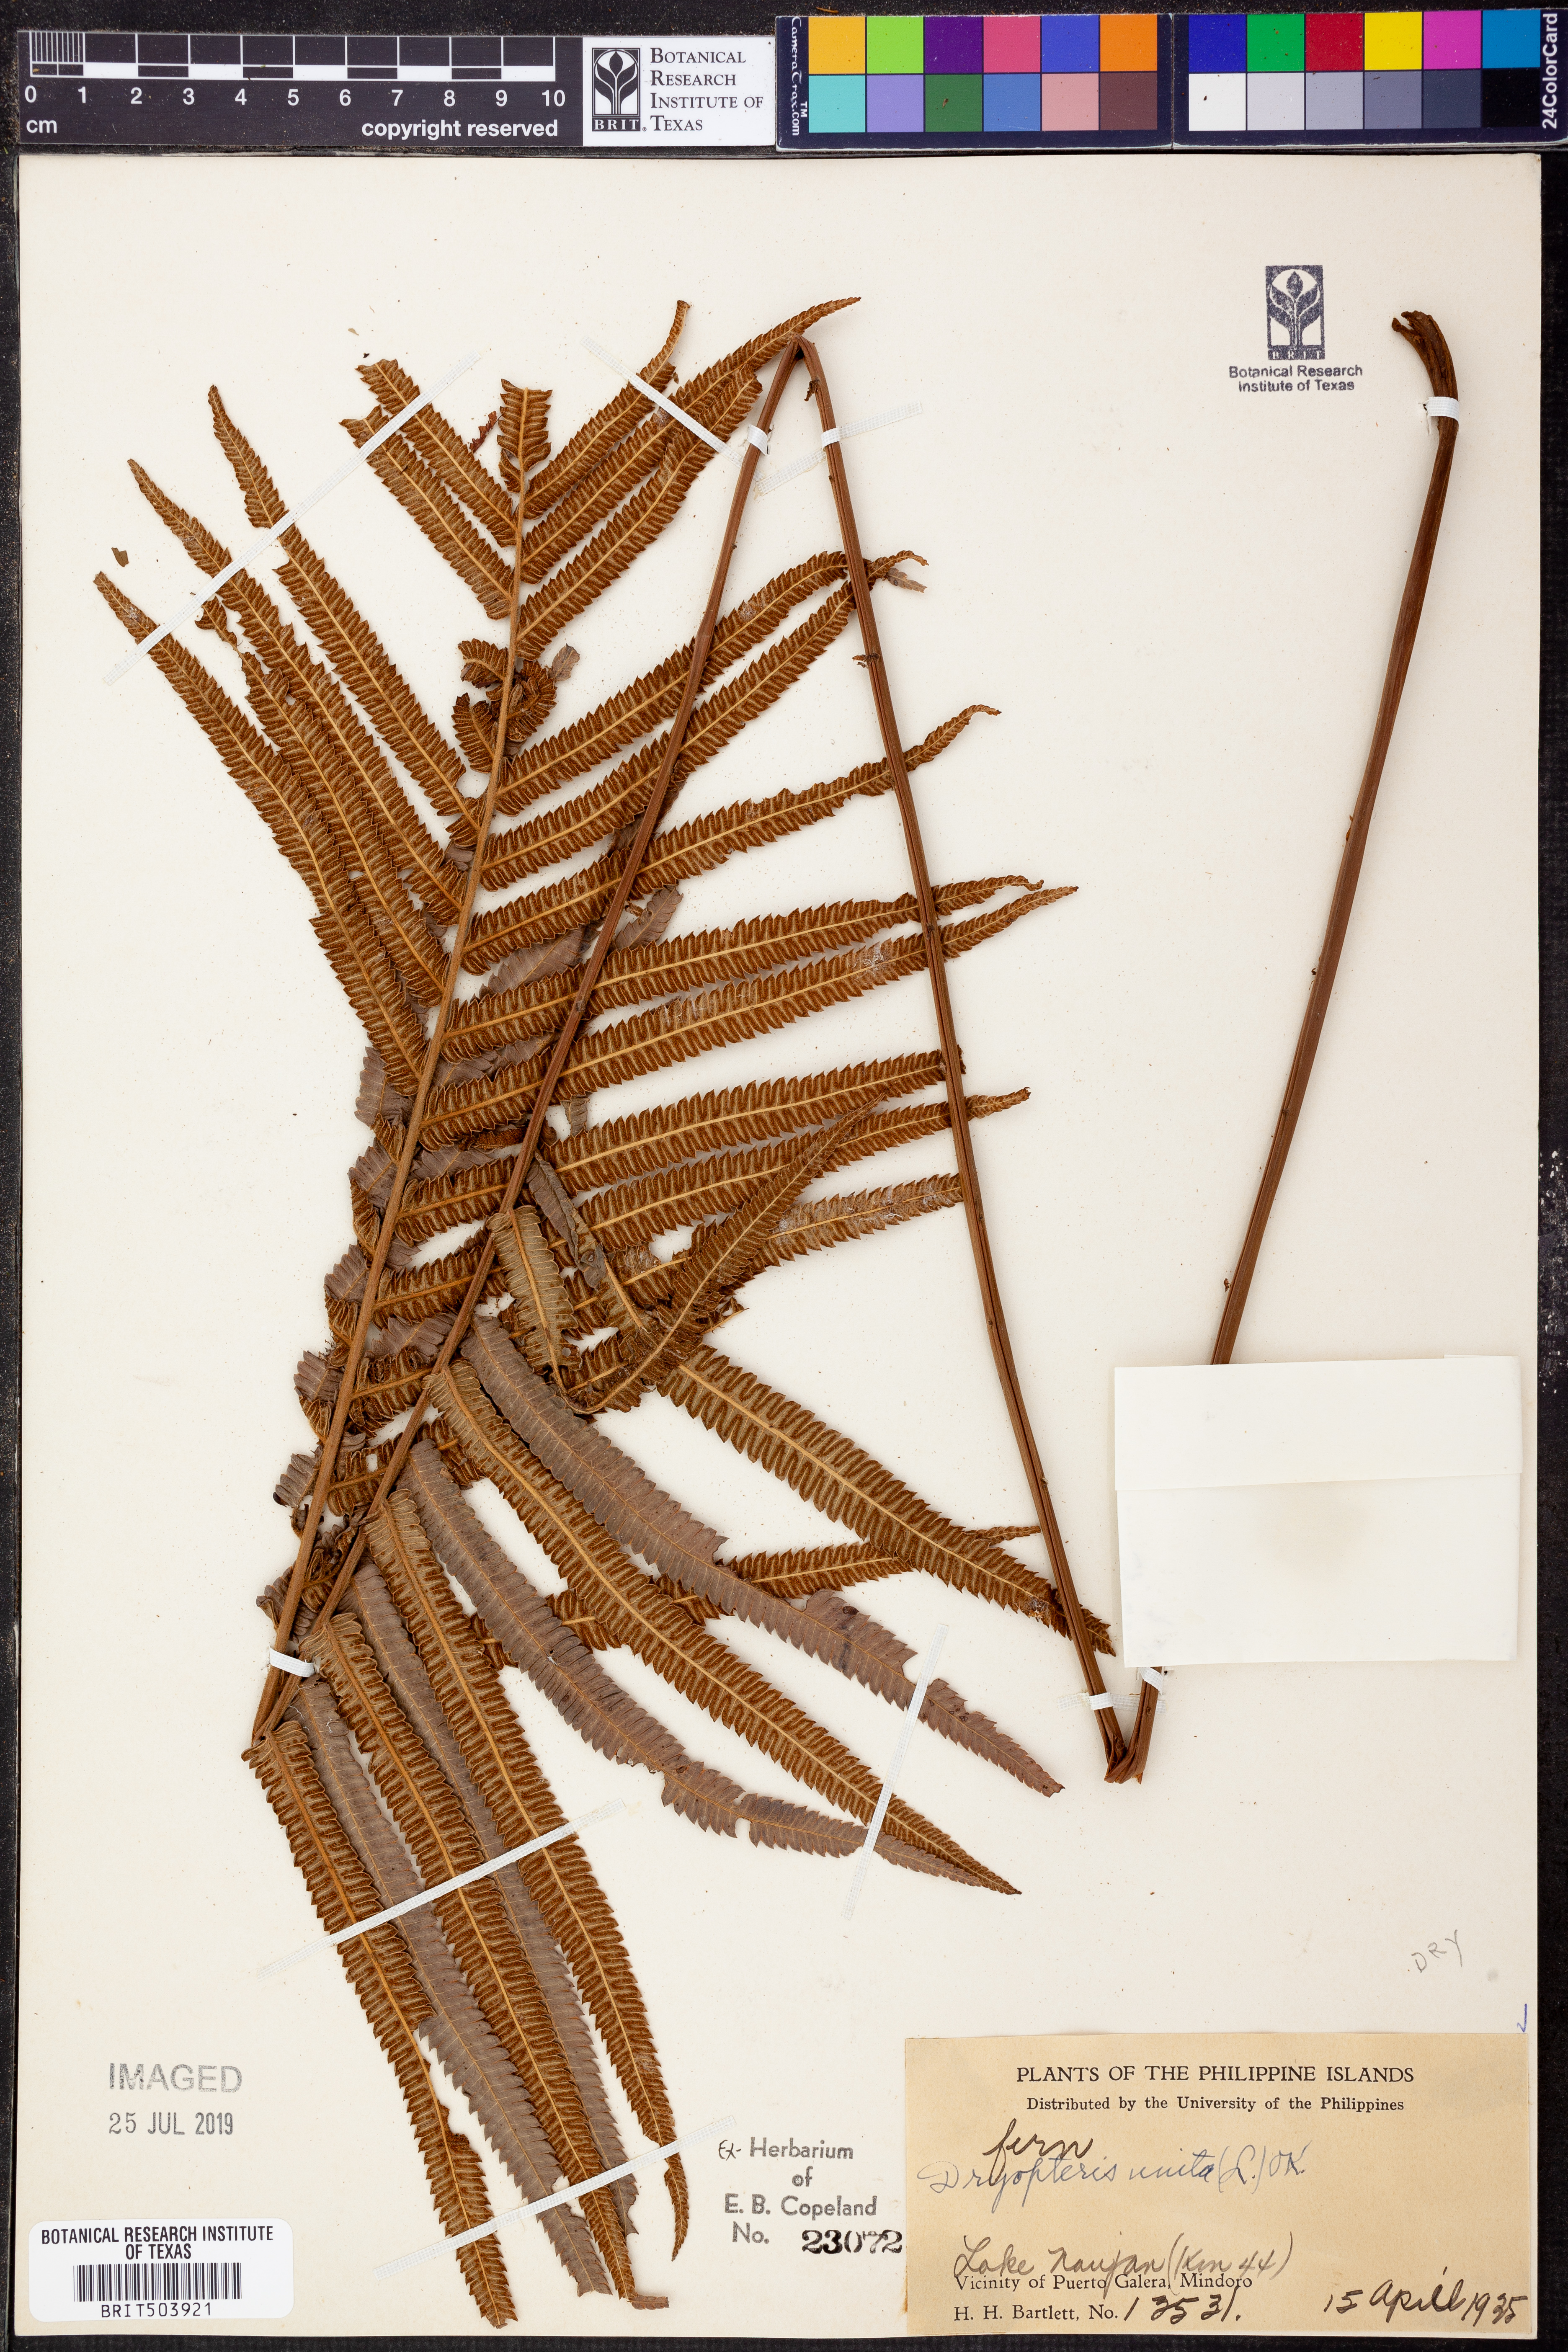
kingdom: Plantae
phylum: Tracheophyta
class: Polypodiopsida
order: Polypodiales
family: Thelypteridaceae
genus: Strophocaulon
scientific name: Strophocaulon unitum
